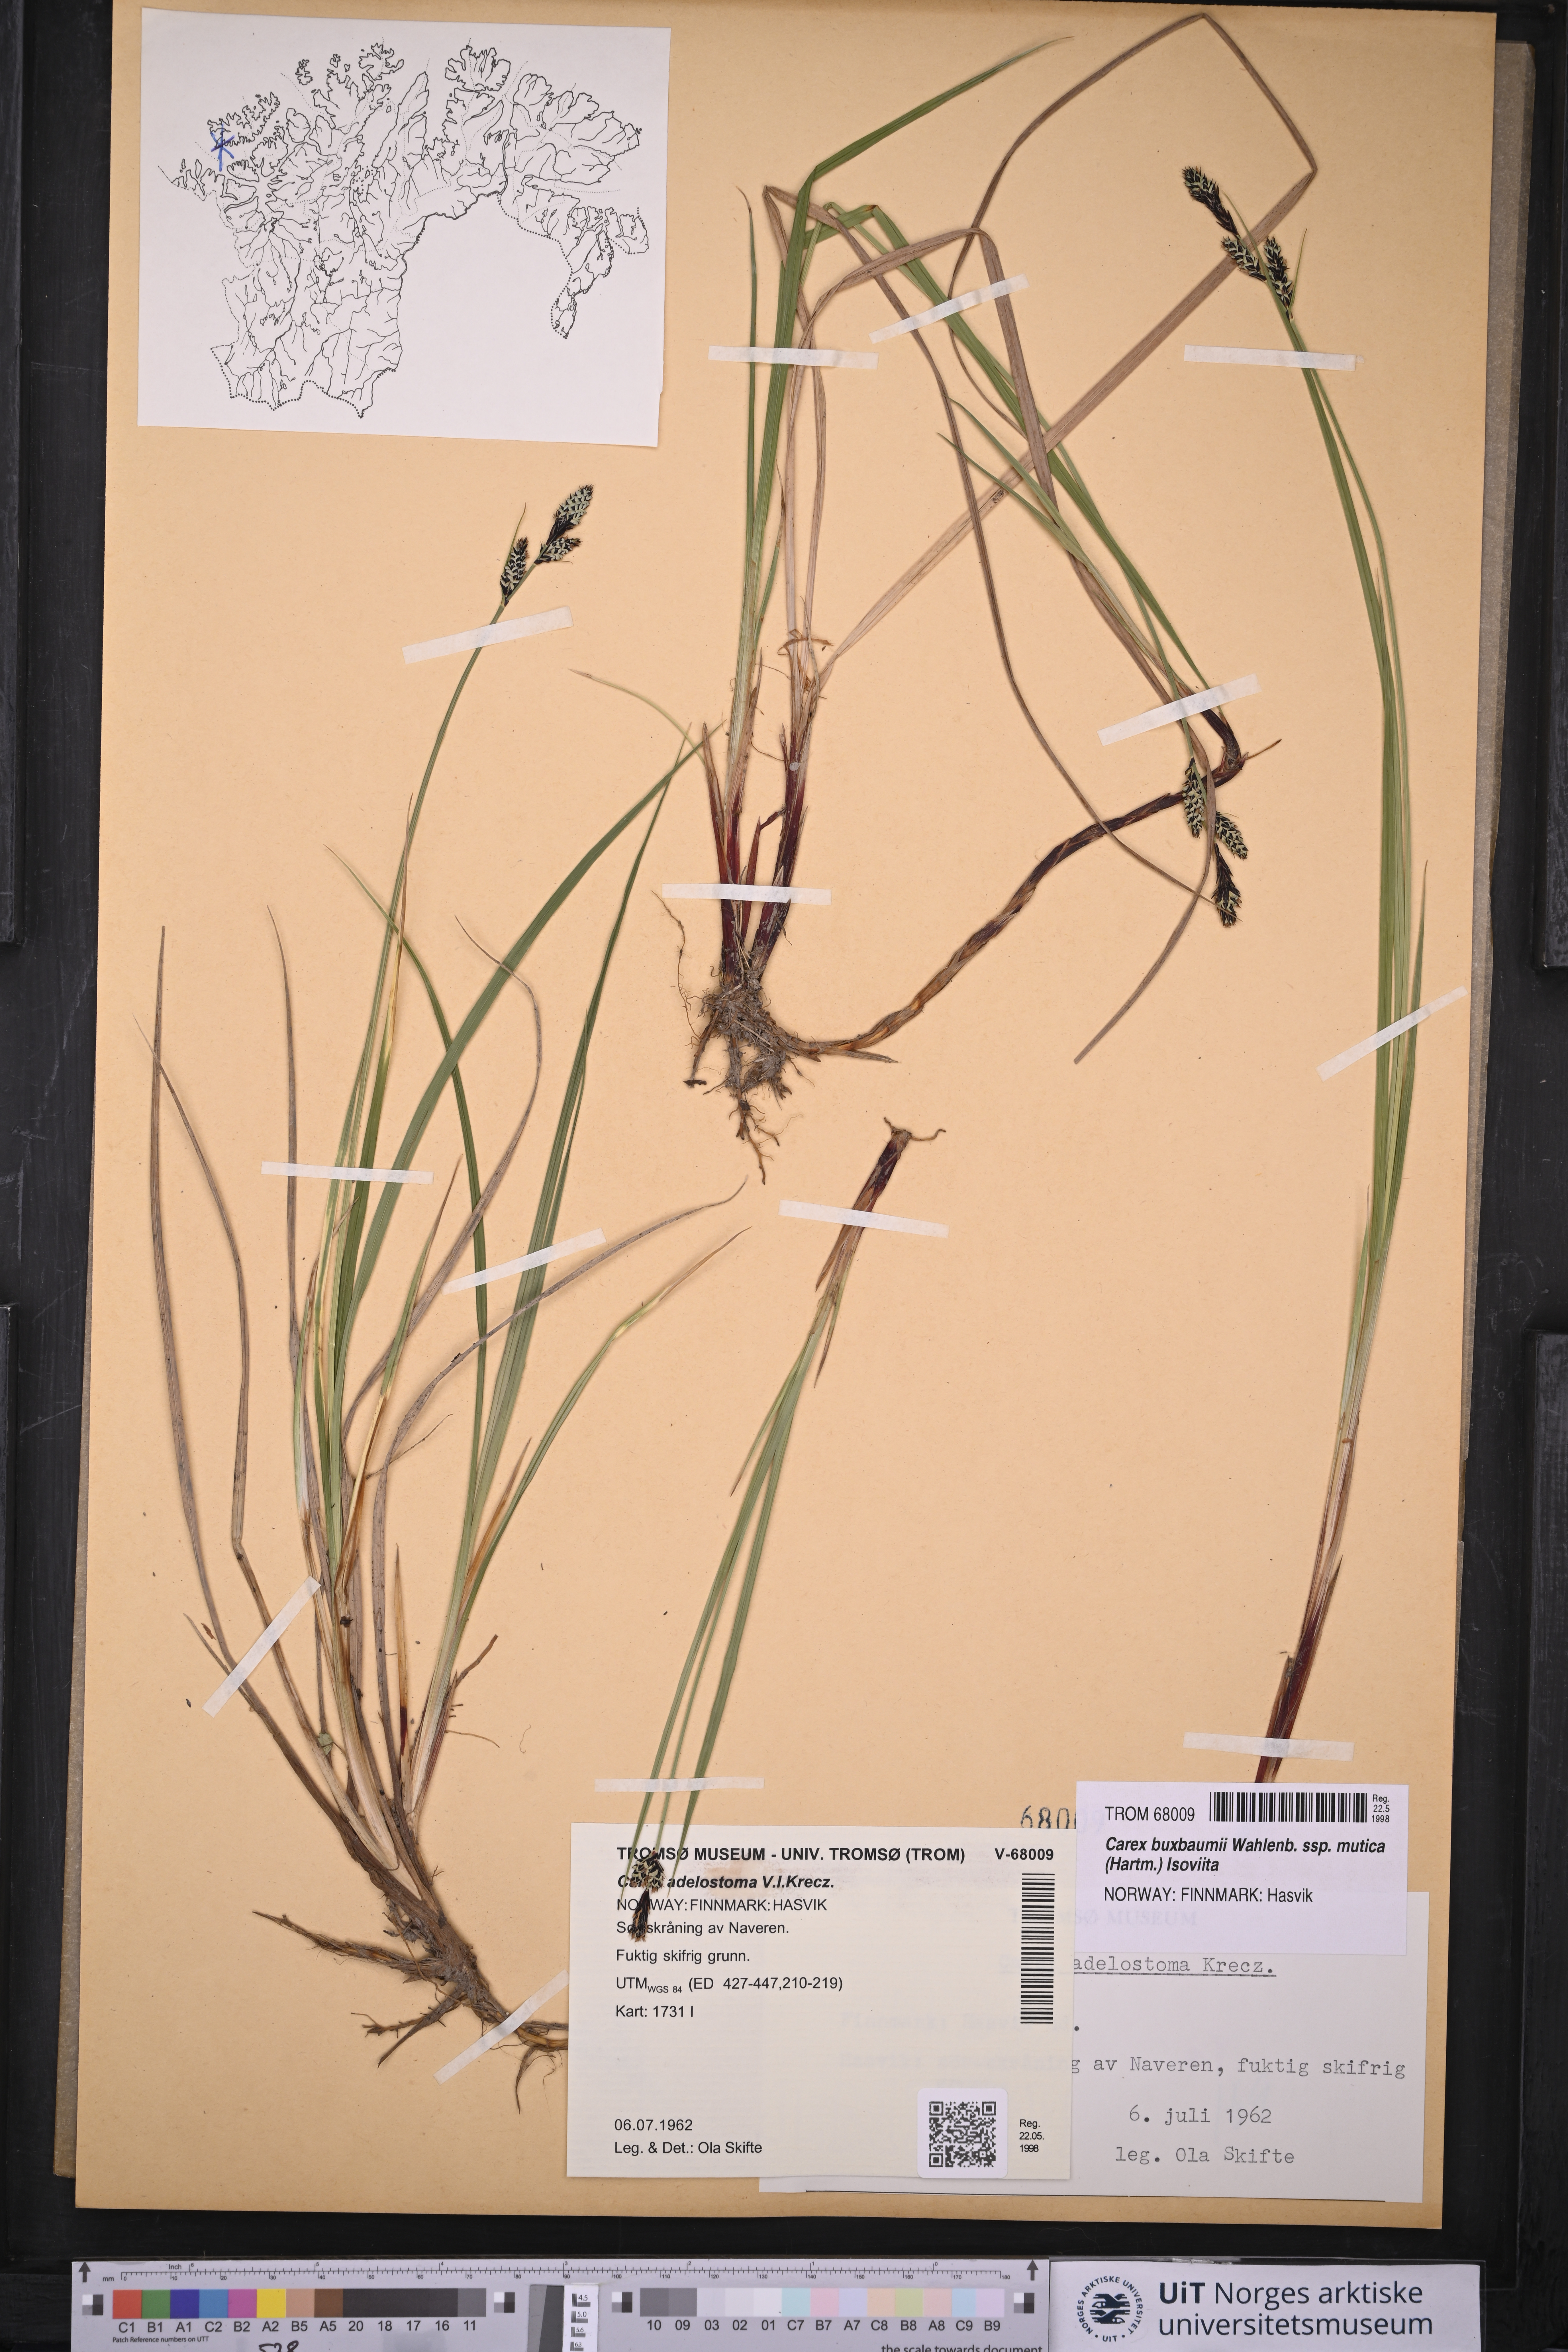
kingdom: Plantae
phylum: Tracheophyta
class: Liliopsida
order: Poales
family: Cyperaceae
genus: Carex
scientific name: Carex adelostoma
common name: Circumpolar sedge
